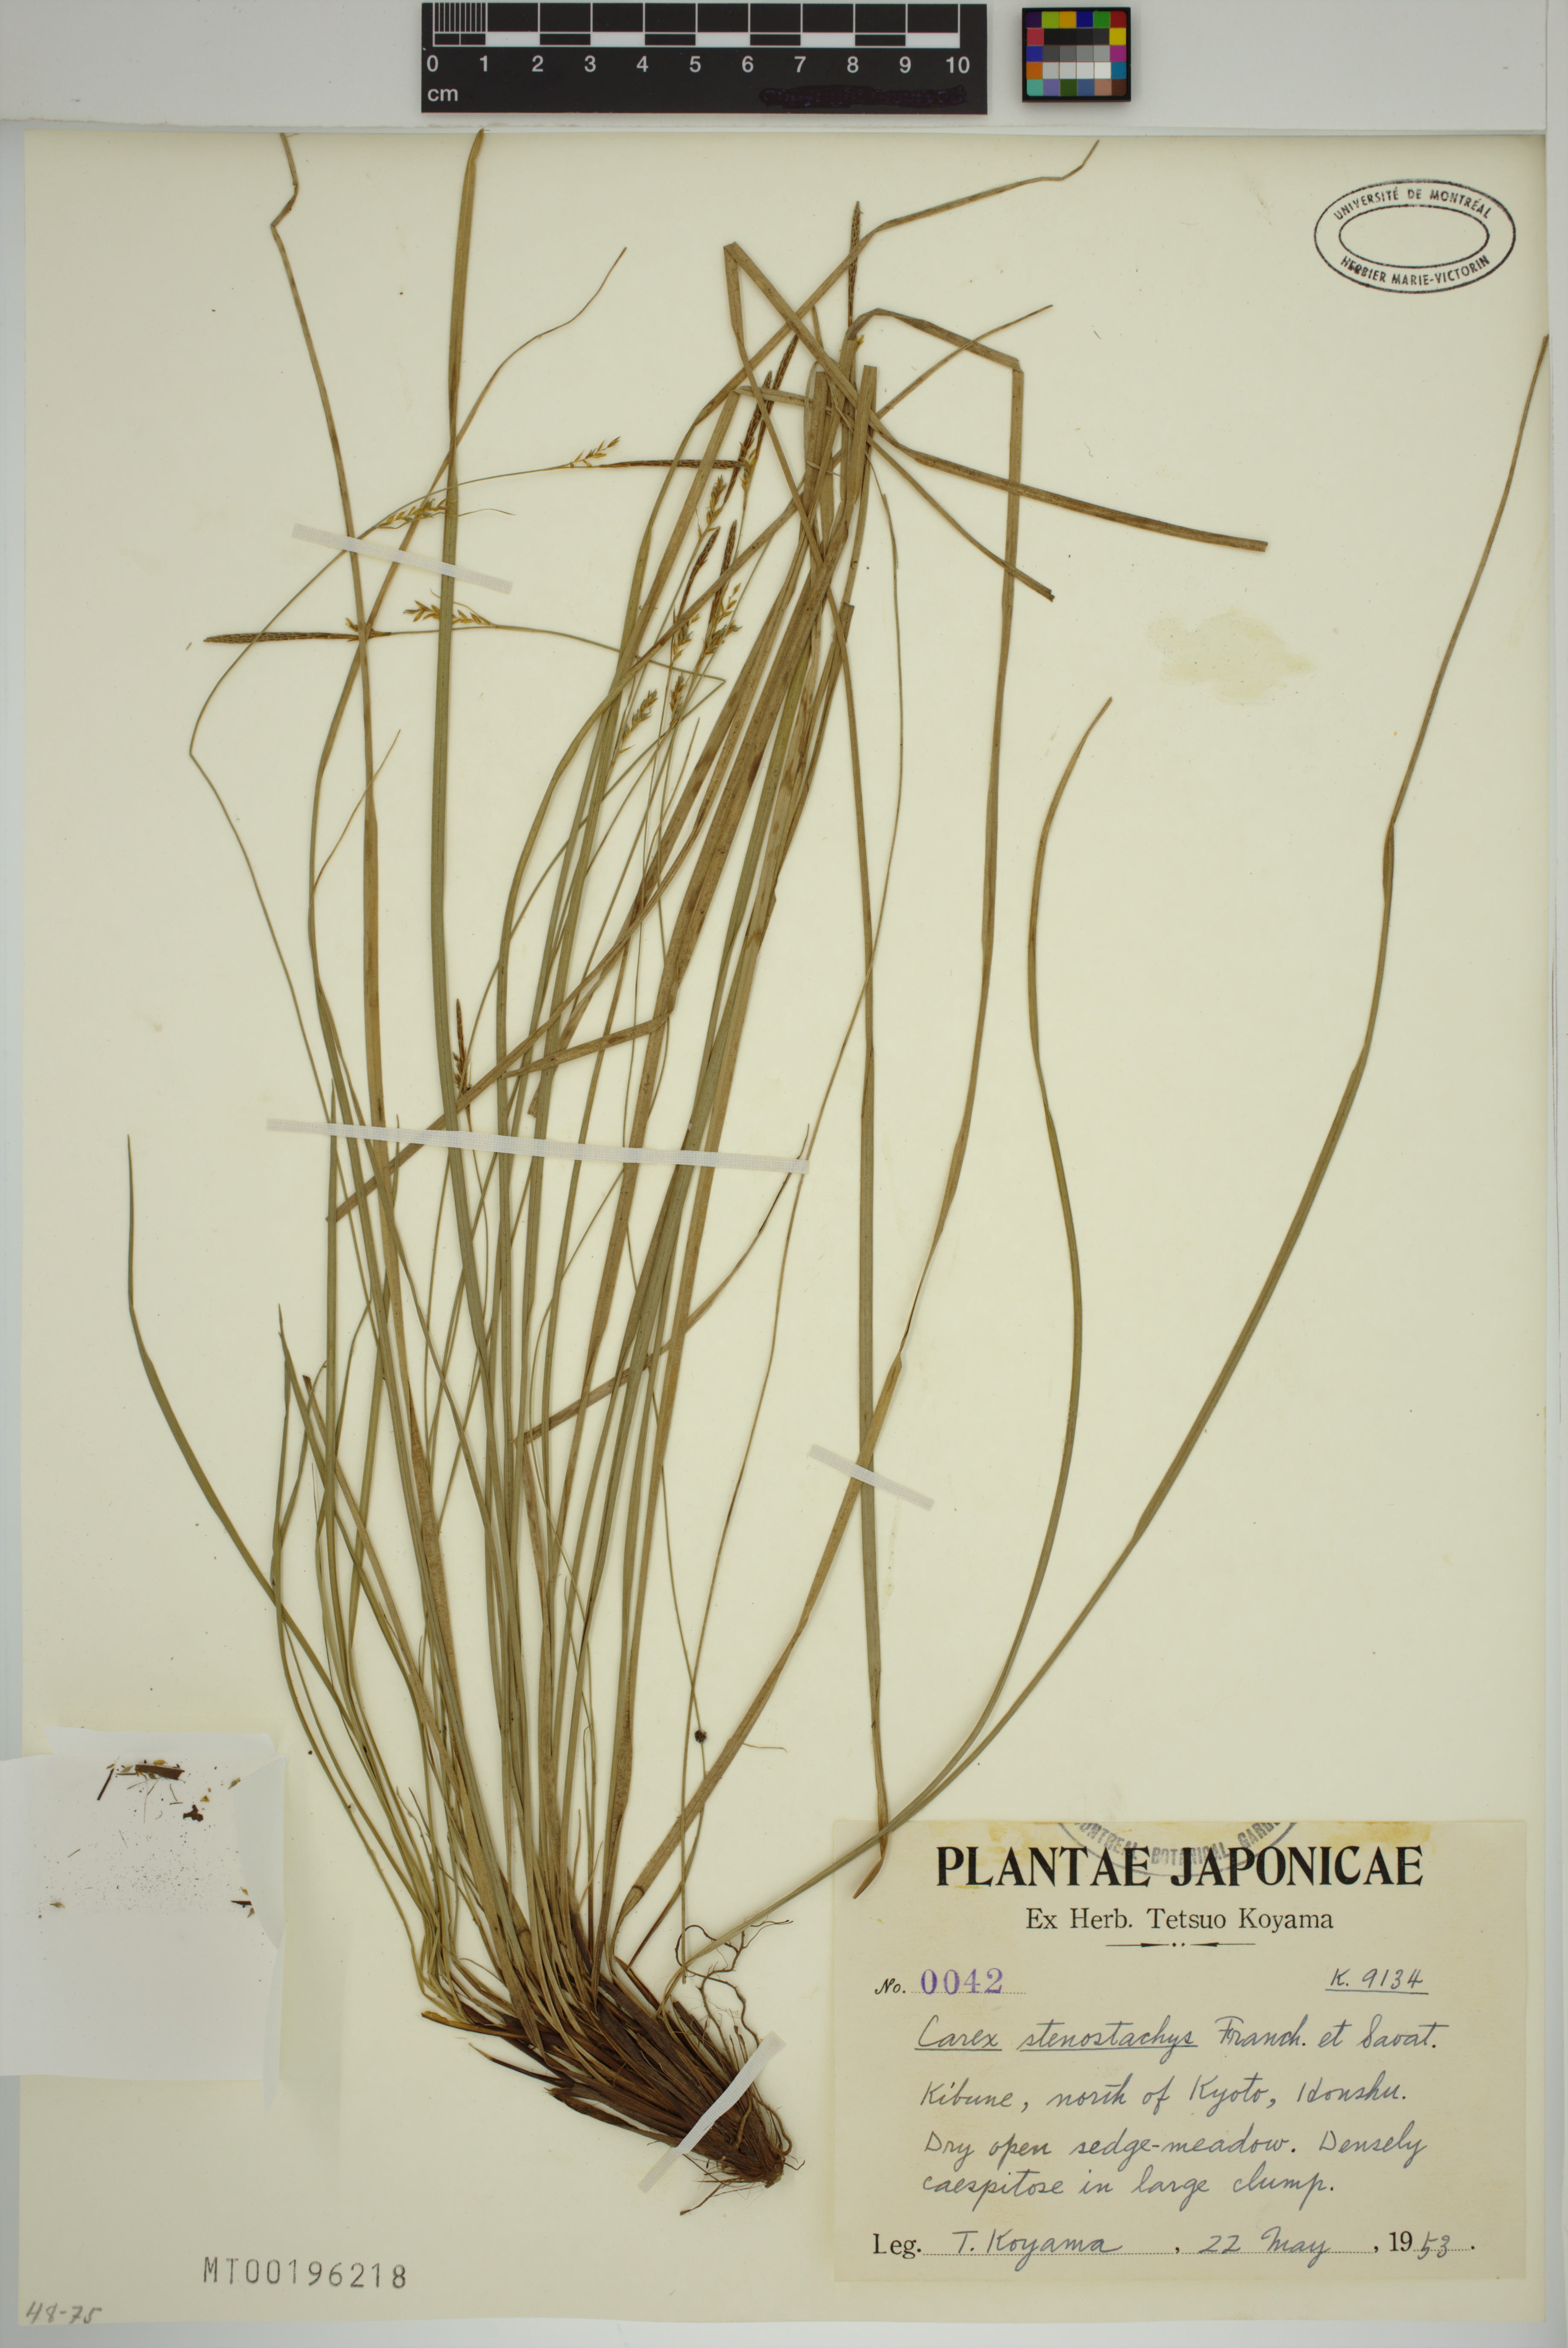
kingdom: Plantae
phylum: Tracheophyta
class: Liliopsida
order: Poales
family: Cyperaceae
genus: Carex
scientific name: Carex stenostachys
